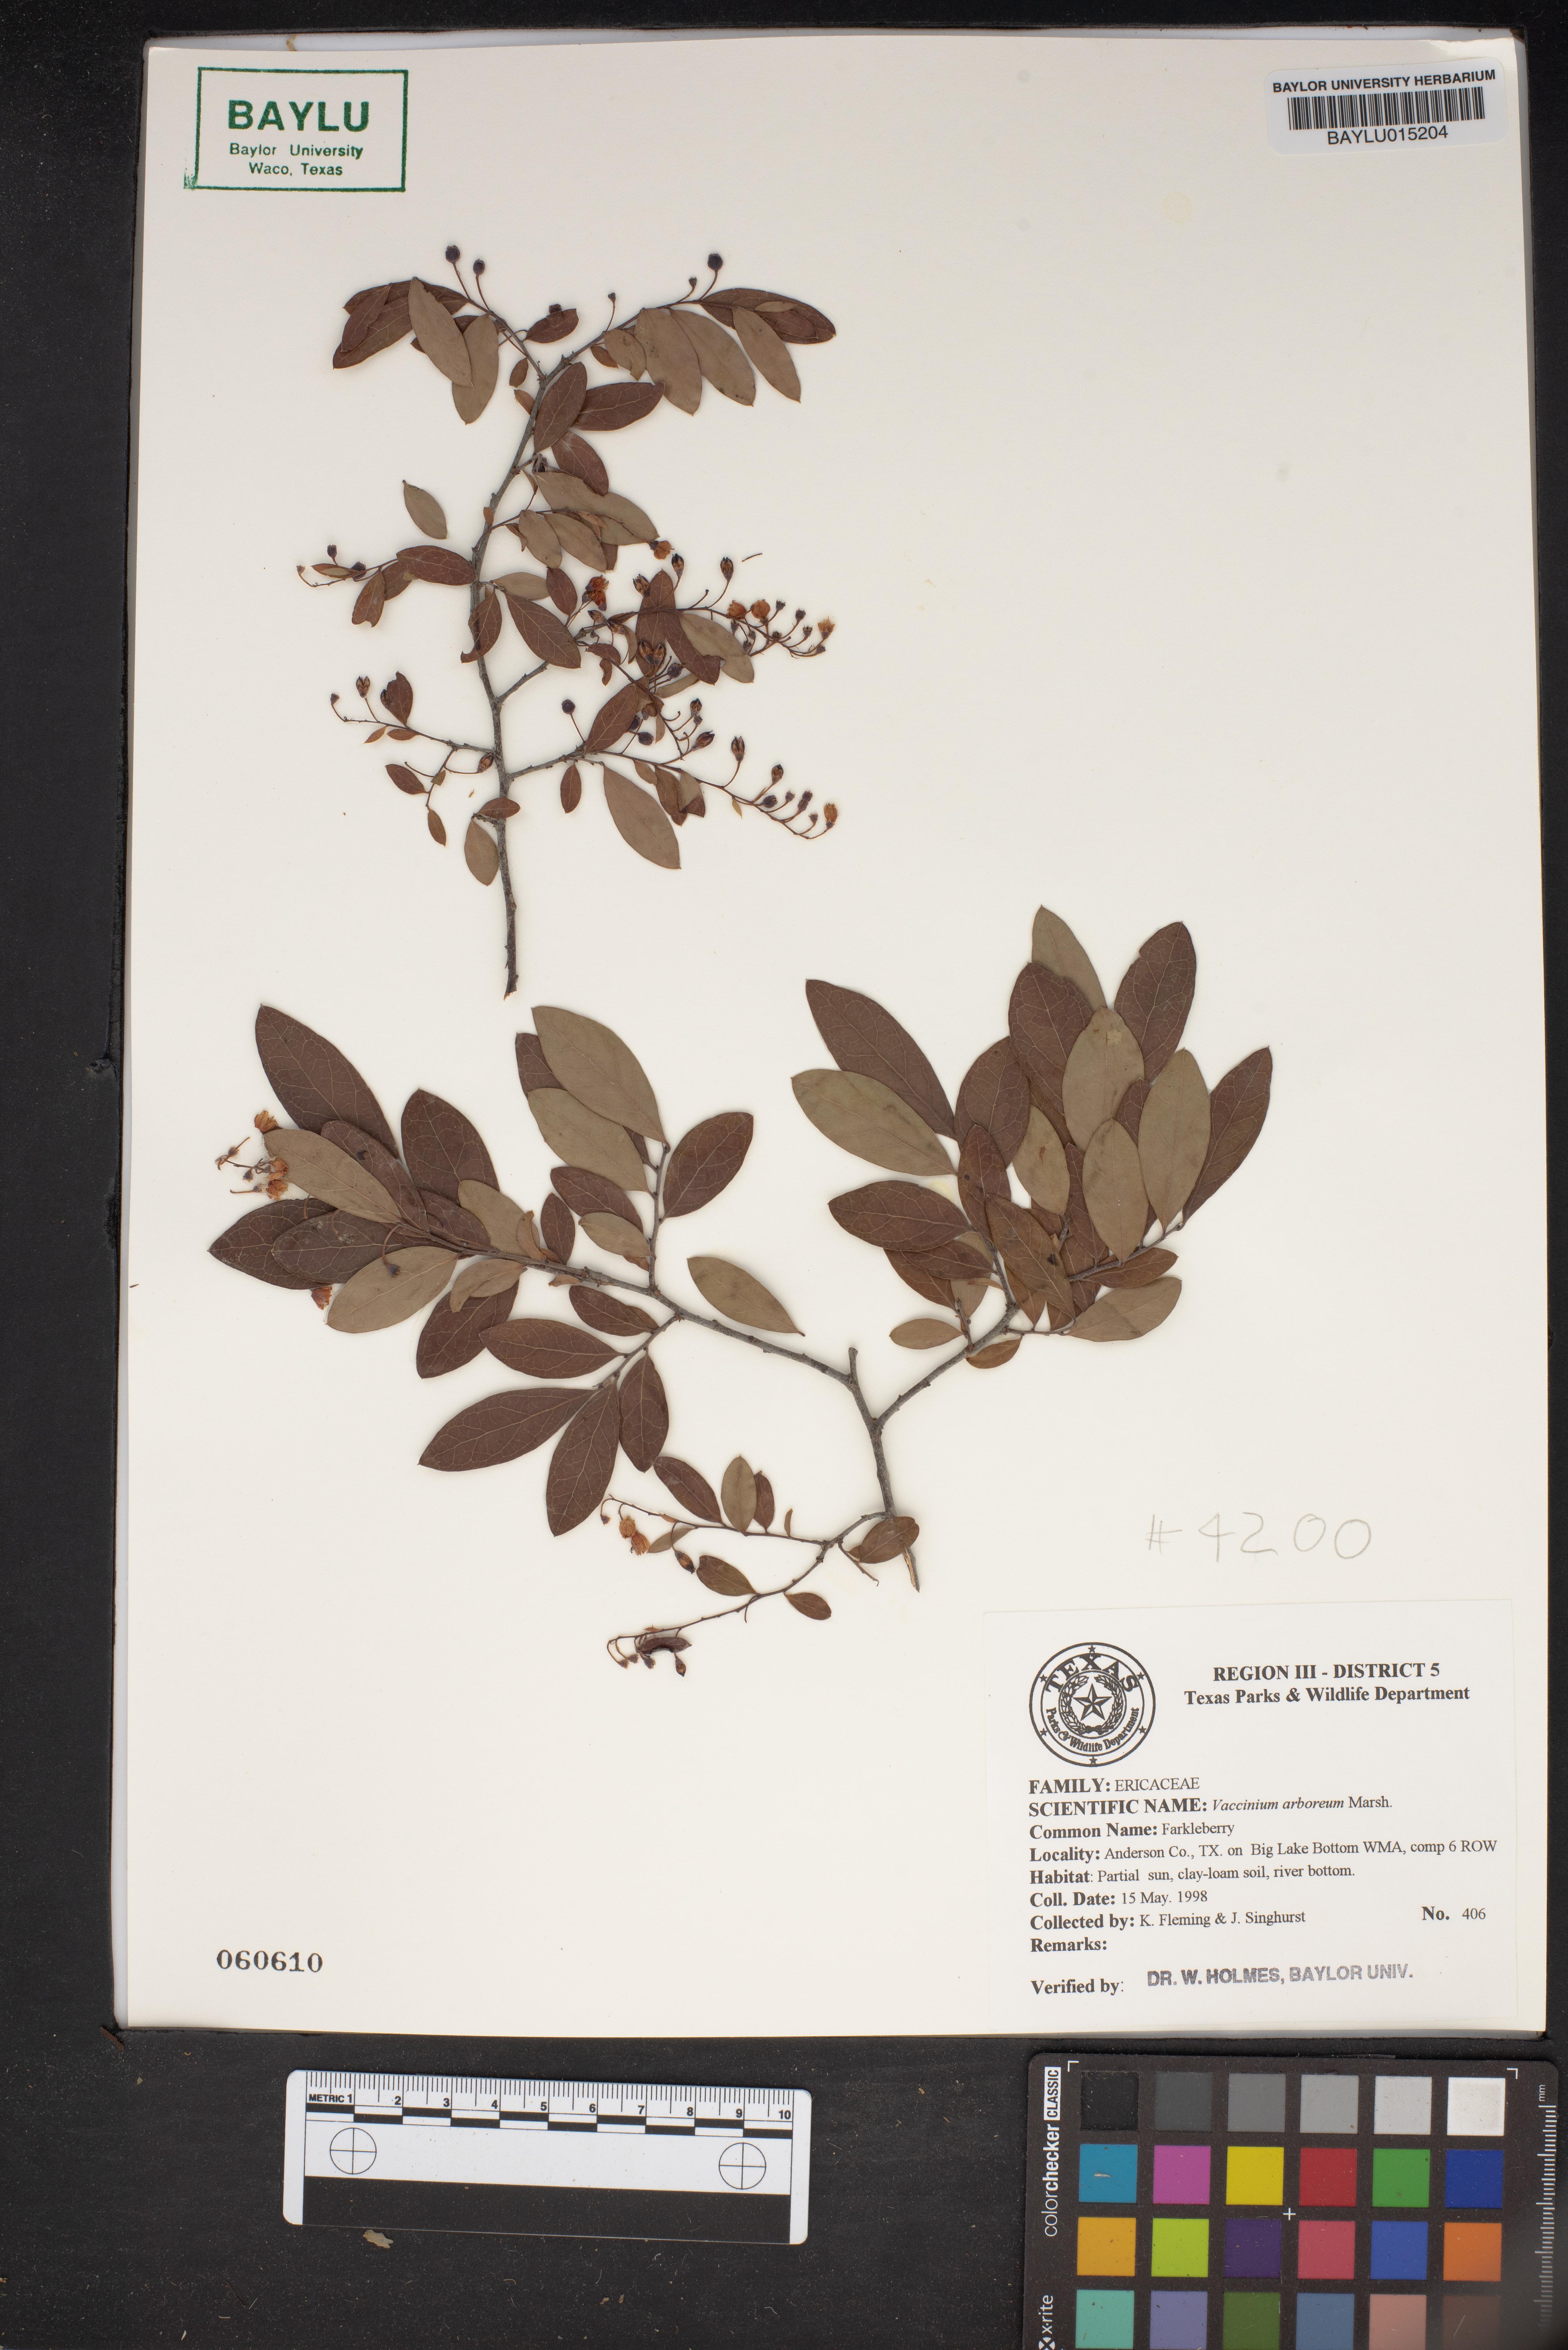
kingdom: Plantae
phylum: Tracheophyta
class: Magnoliopsida
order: Ericales
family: Ericaceae
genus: Vaccinium
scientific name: Vaccinium arboreum
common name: Farkleberry
